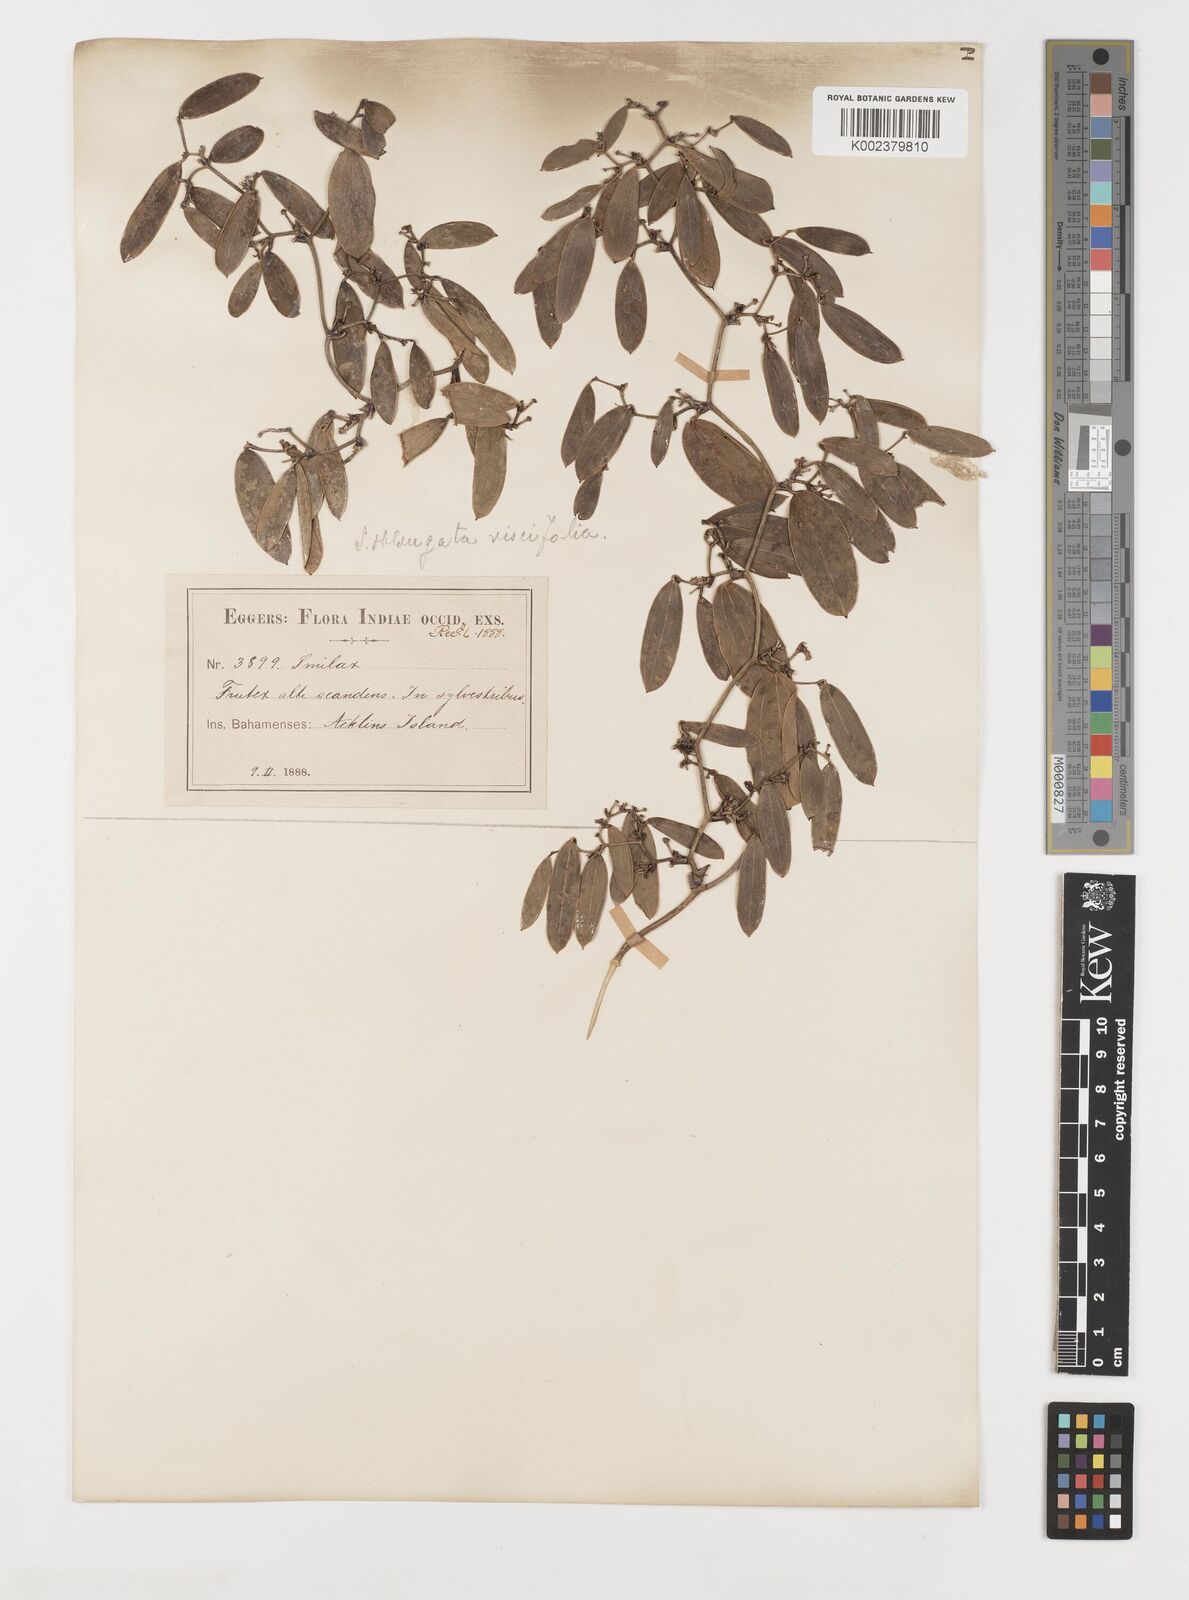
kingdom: Plantae
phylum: Tracheophyta
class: Liliopsida
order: Liliales
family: Smilacaceae
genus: Smilax
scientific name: Smilax oblongata
